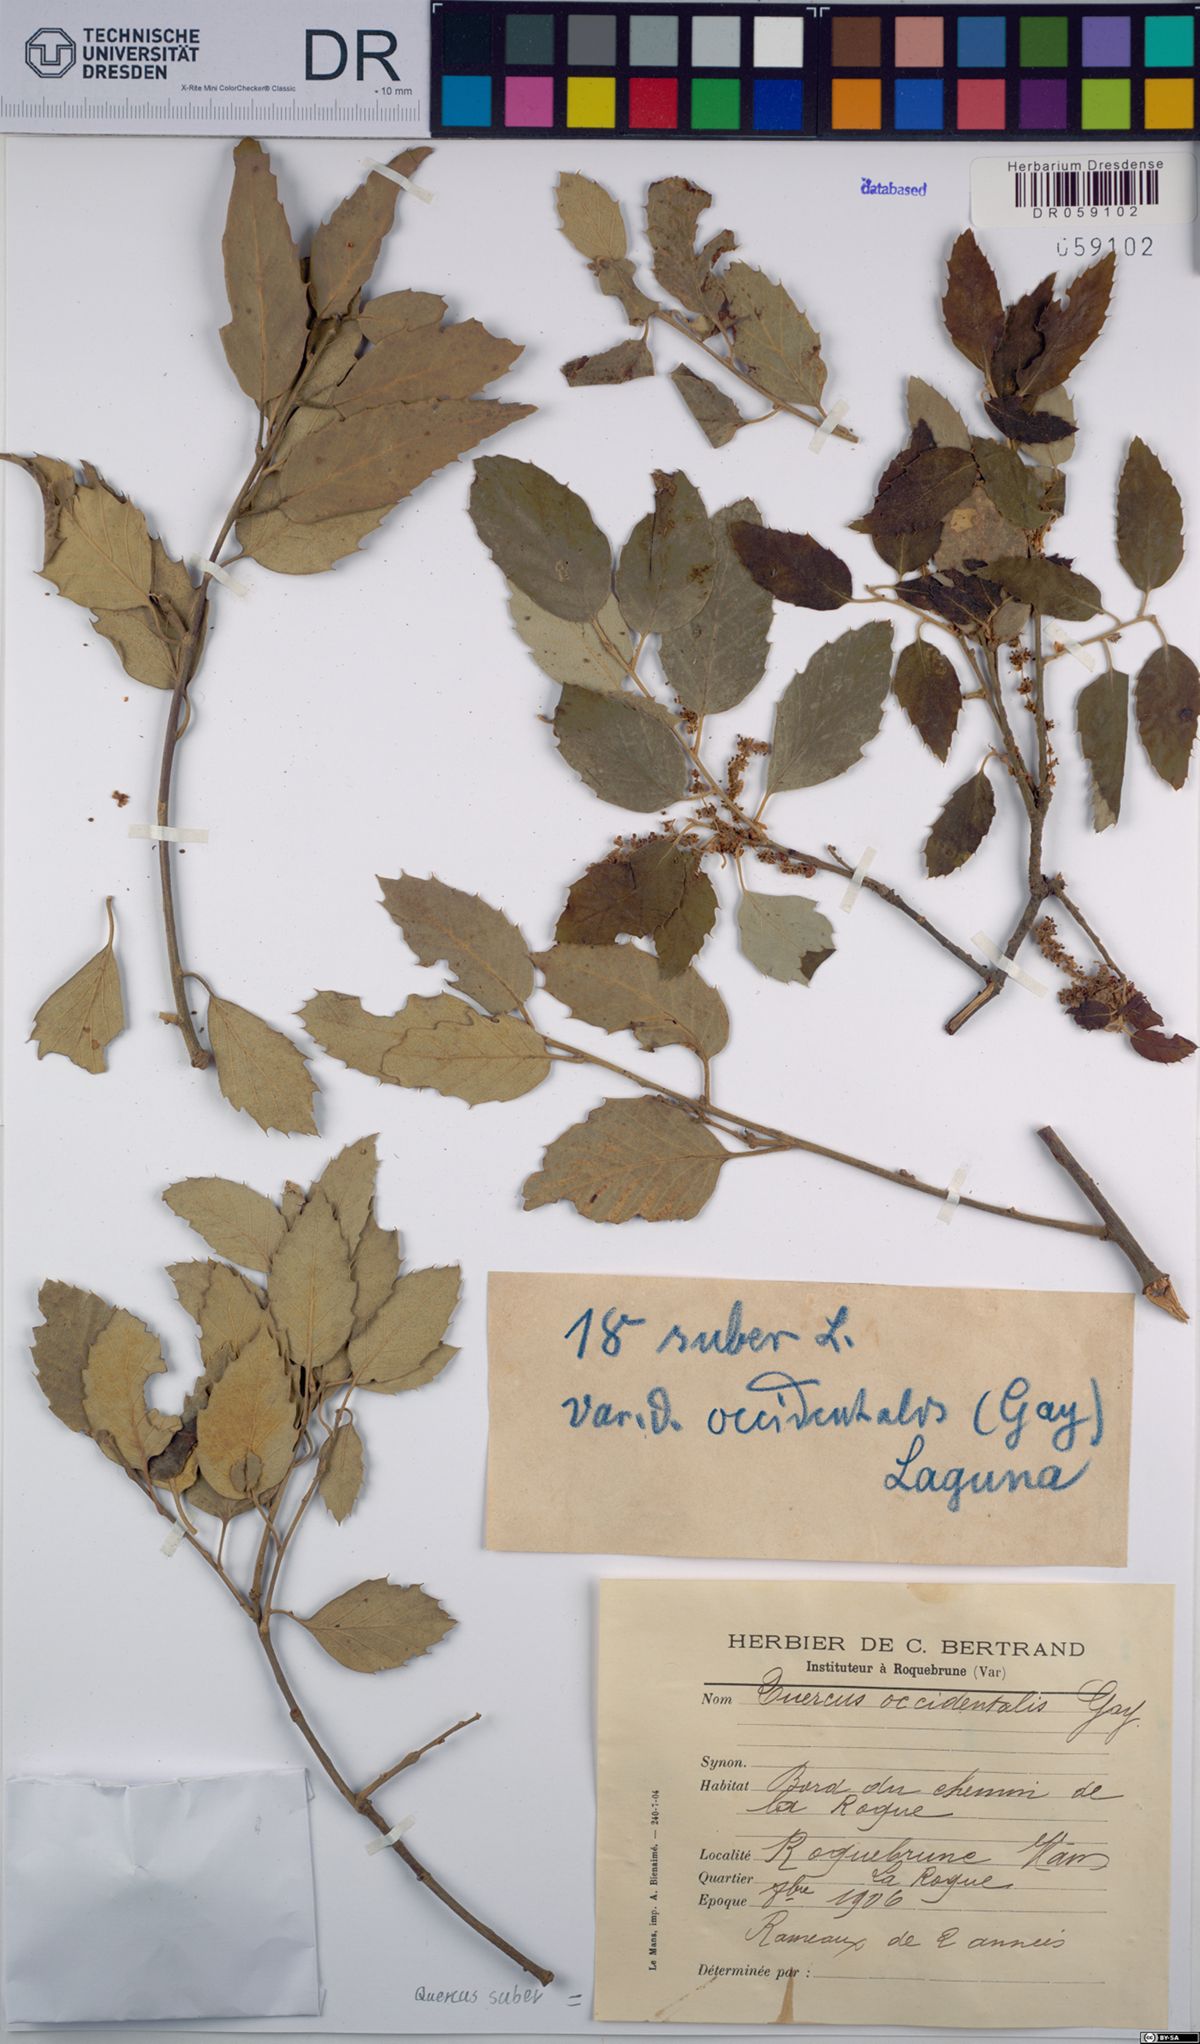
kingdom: Plantae
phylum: Tracheophyta
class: Magnoliopsida
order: Fagales
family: Fagaceae
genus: Quercus
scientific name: Quercus suber
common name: Cork oak
